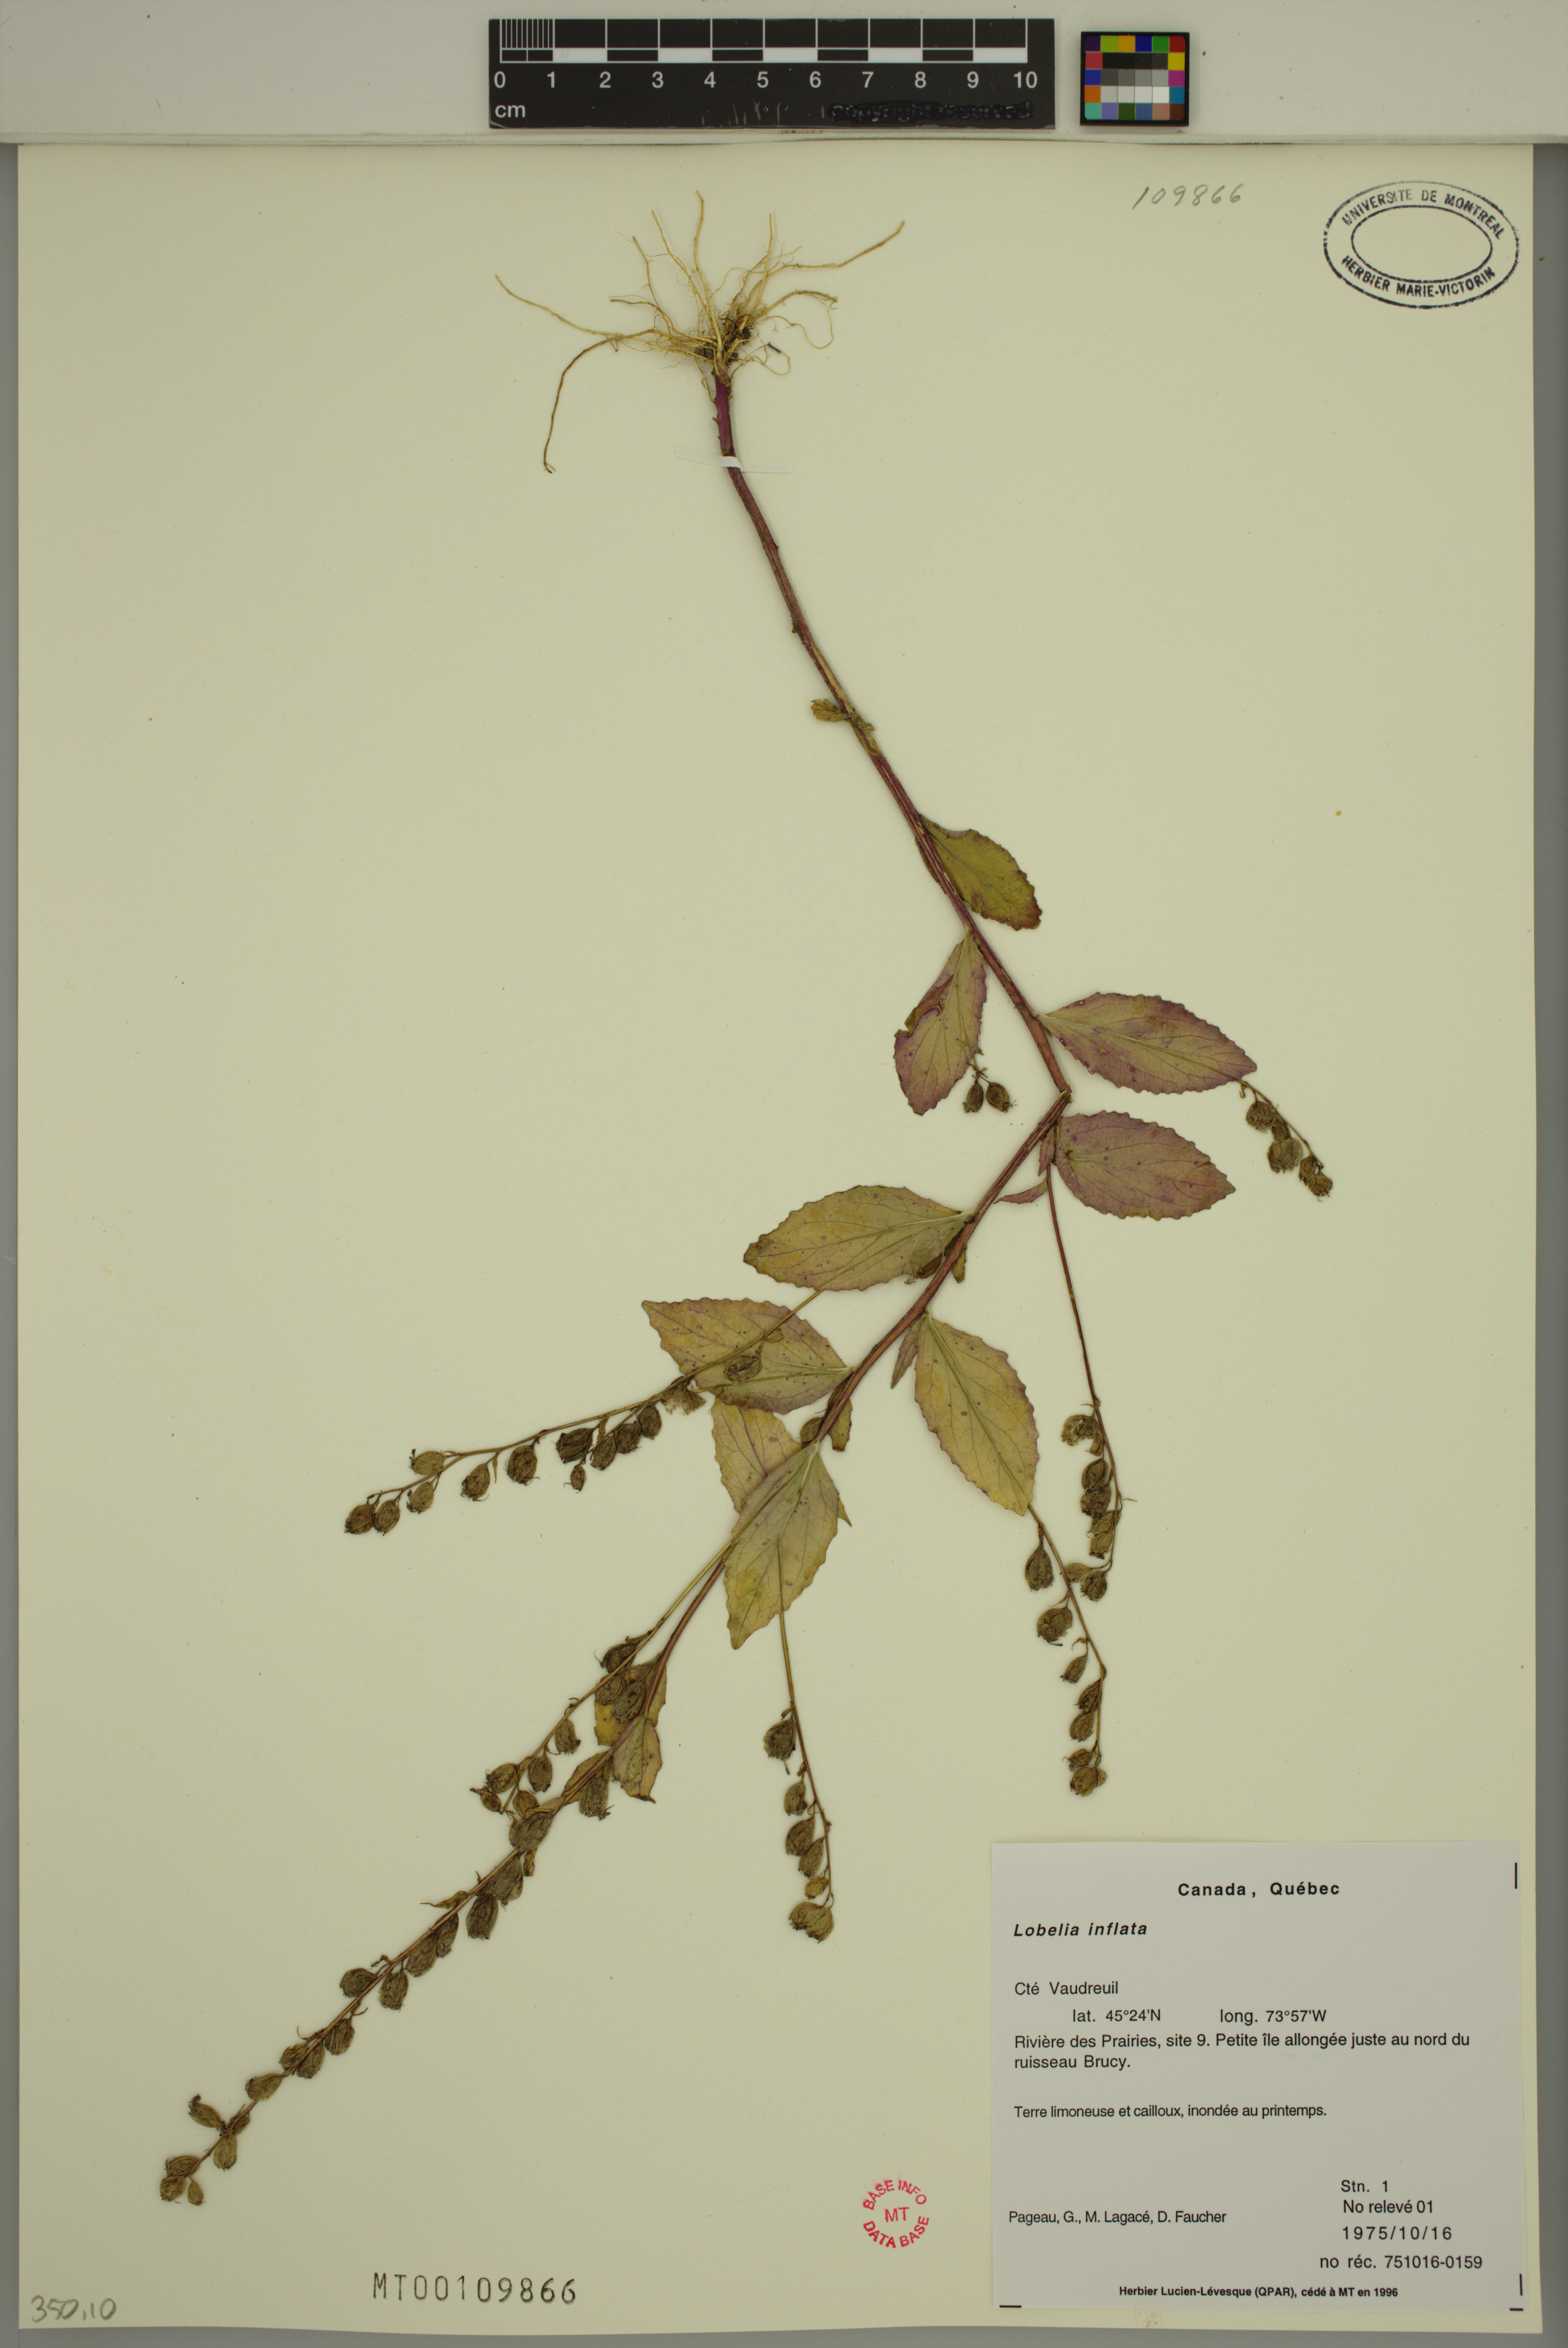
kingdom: Plantae
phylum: Tracheophyta
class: Magnoliopsida
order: Asterales
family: Campanulaceae
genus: Lobelia
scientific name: Lobelia inflata
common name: Indian tobacco
